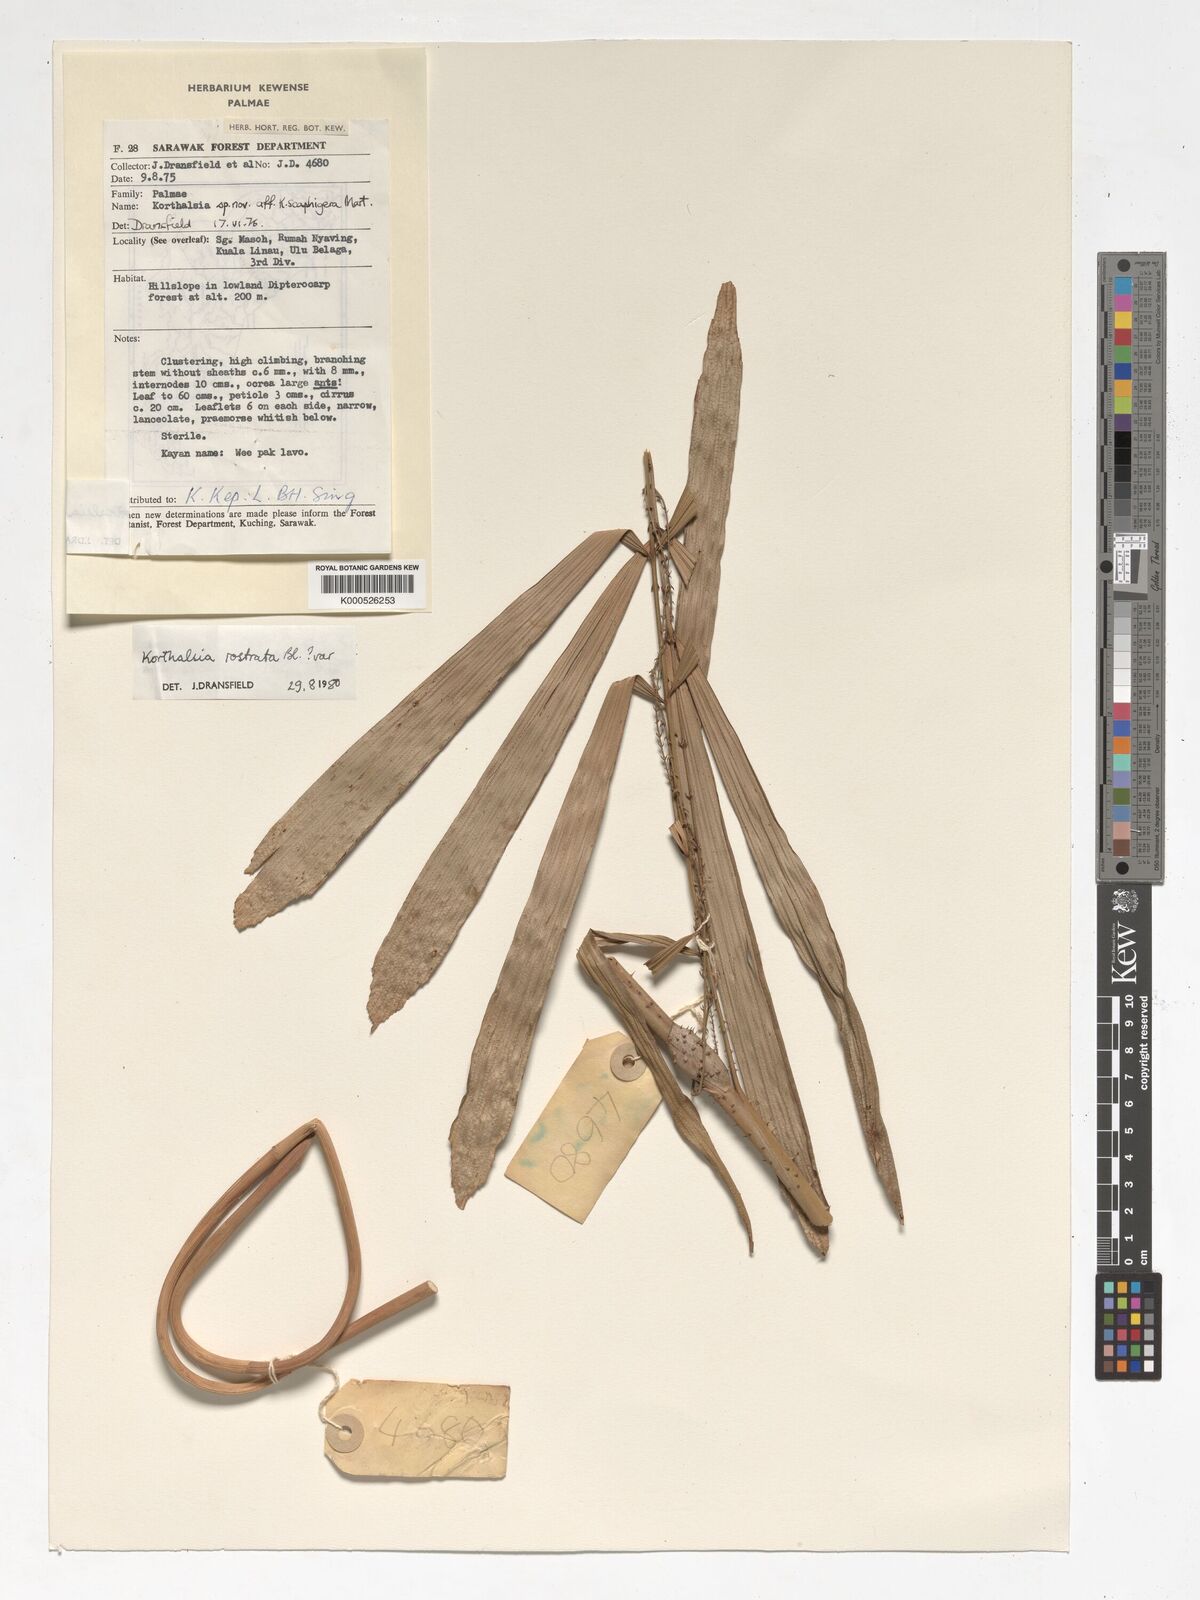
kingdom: Plantae
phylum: Tracheophyta
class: Liliopsida
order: Arecales
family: Arecaceae
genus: Korthalsia
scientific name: Korthalsia rostrata
